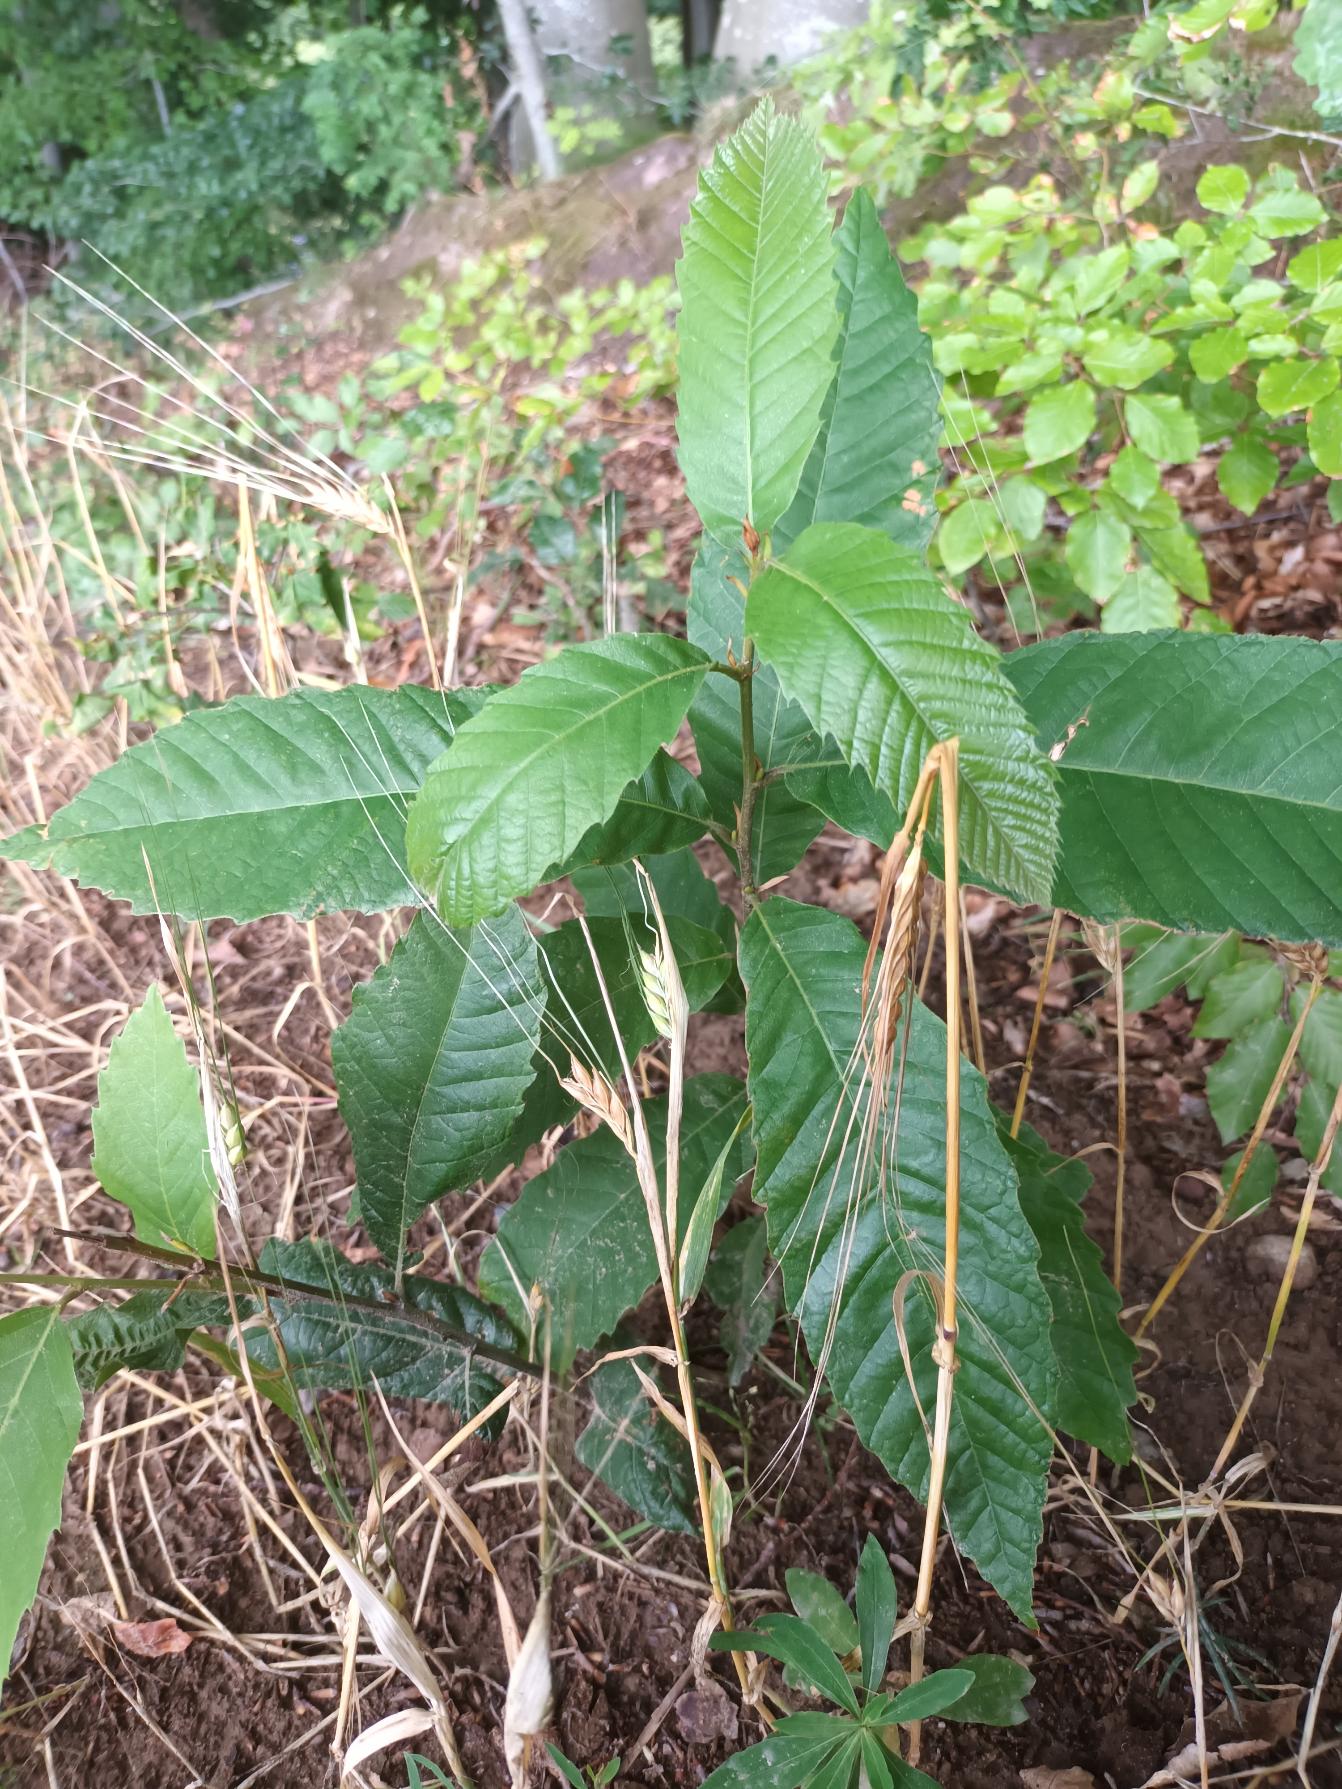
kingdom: Plantae
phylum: Tracheophyta
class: Magnoliopsida
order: Fagales
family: Fagaceae
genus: Castanea
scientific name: Castanea sativa
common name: Ægte kastanie
